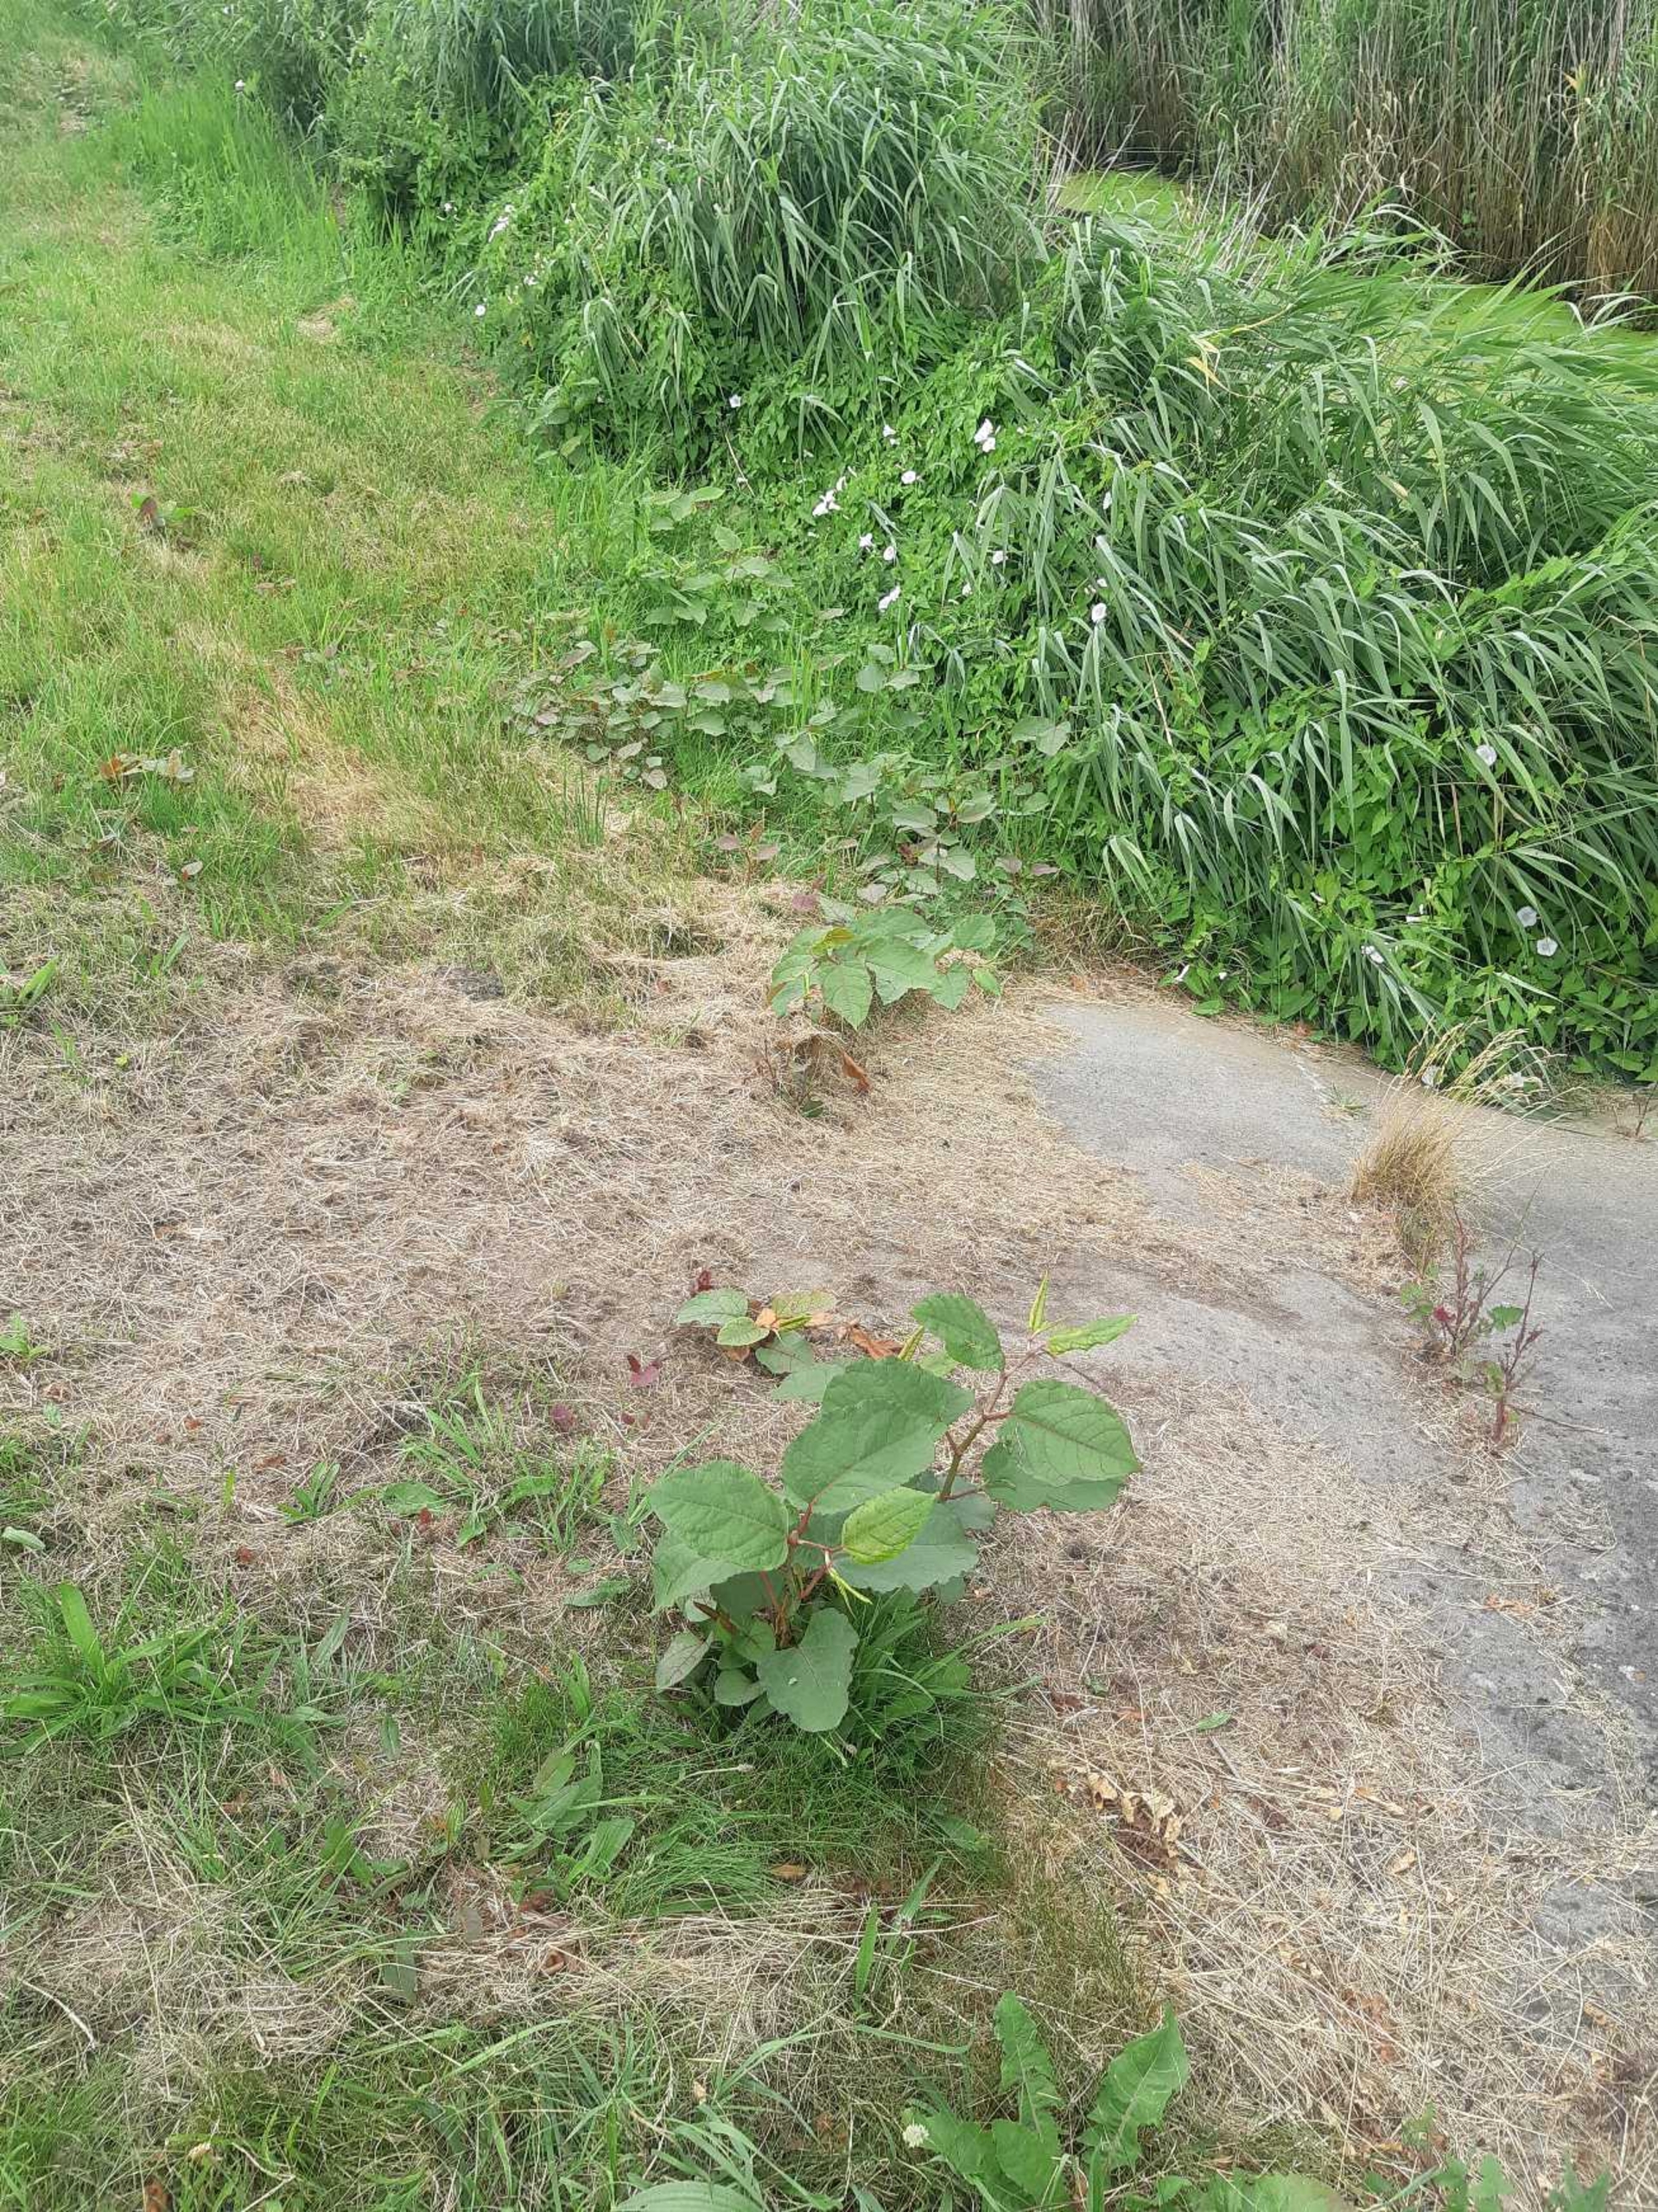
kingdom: Plantae
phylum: Tracheophyta
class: Magnoliopsida
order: Caryophyllales
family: Polygonaceae
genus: Reynoutria
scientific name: Reynoutria bohemica
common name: Hybrid-pileurt
